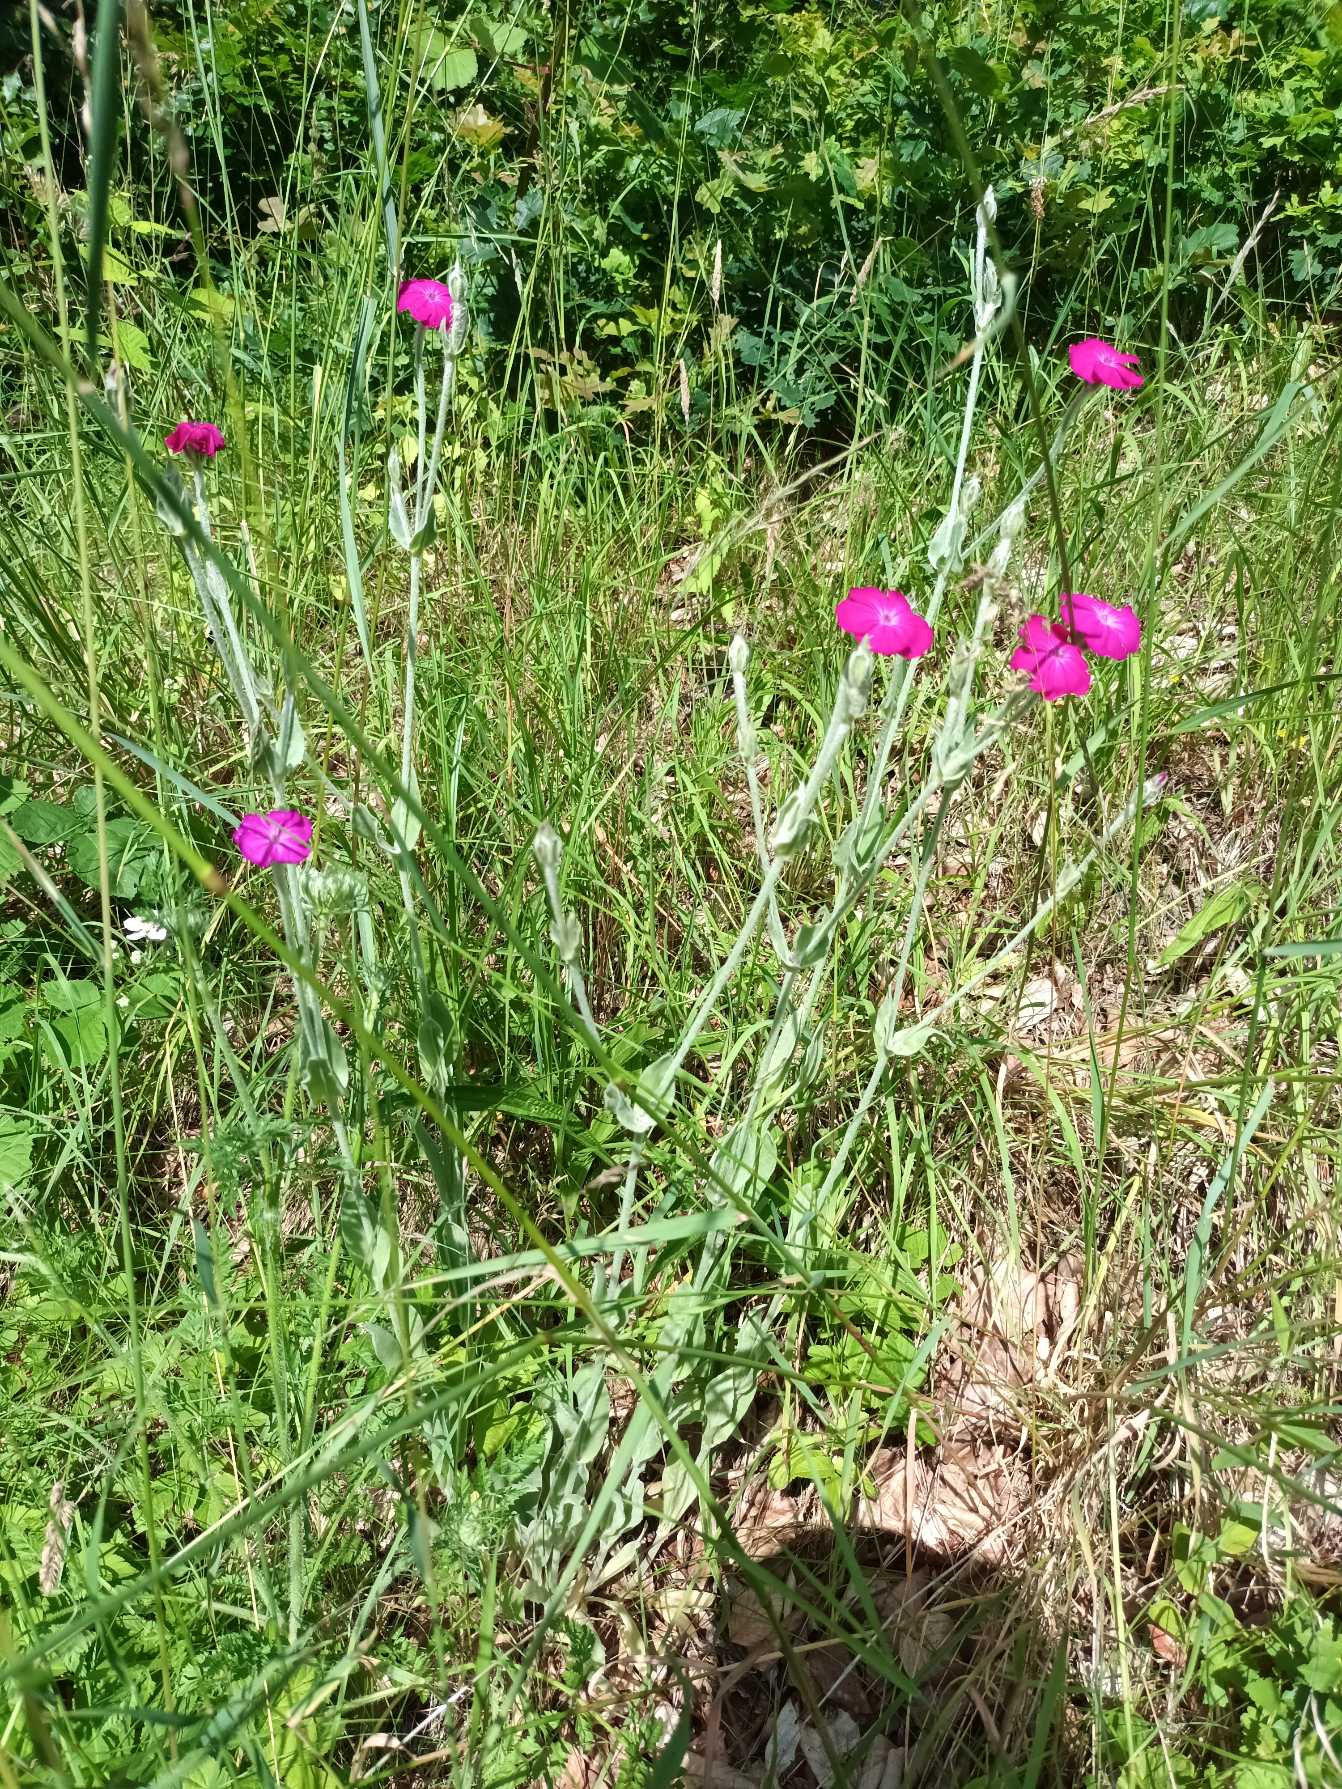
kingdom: Plantae
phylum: Tracheophyta
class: Magnoliopsida
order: Caryophyllales
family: Caryophyllaceae
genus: Silene
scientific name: Silene coronaria
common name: Fiksernellike
